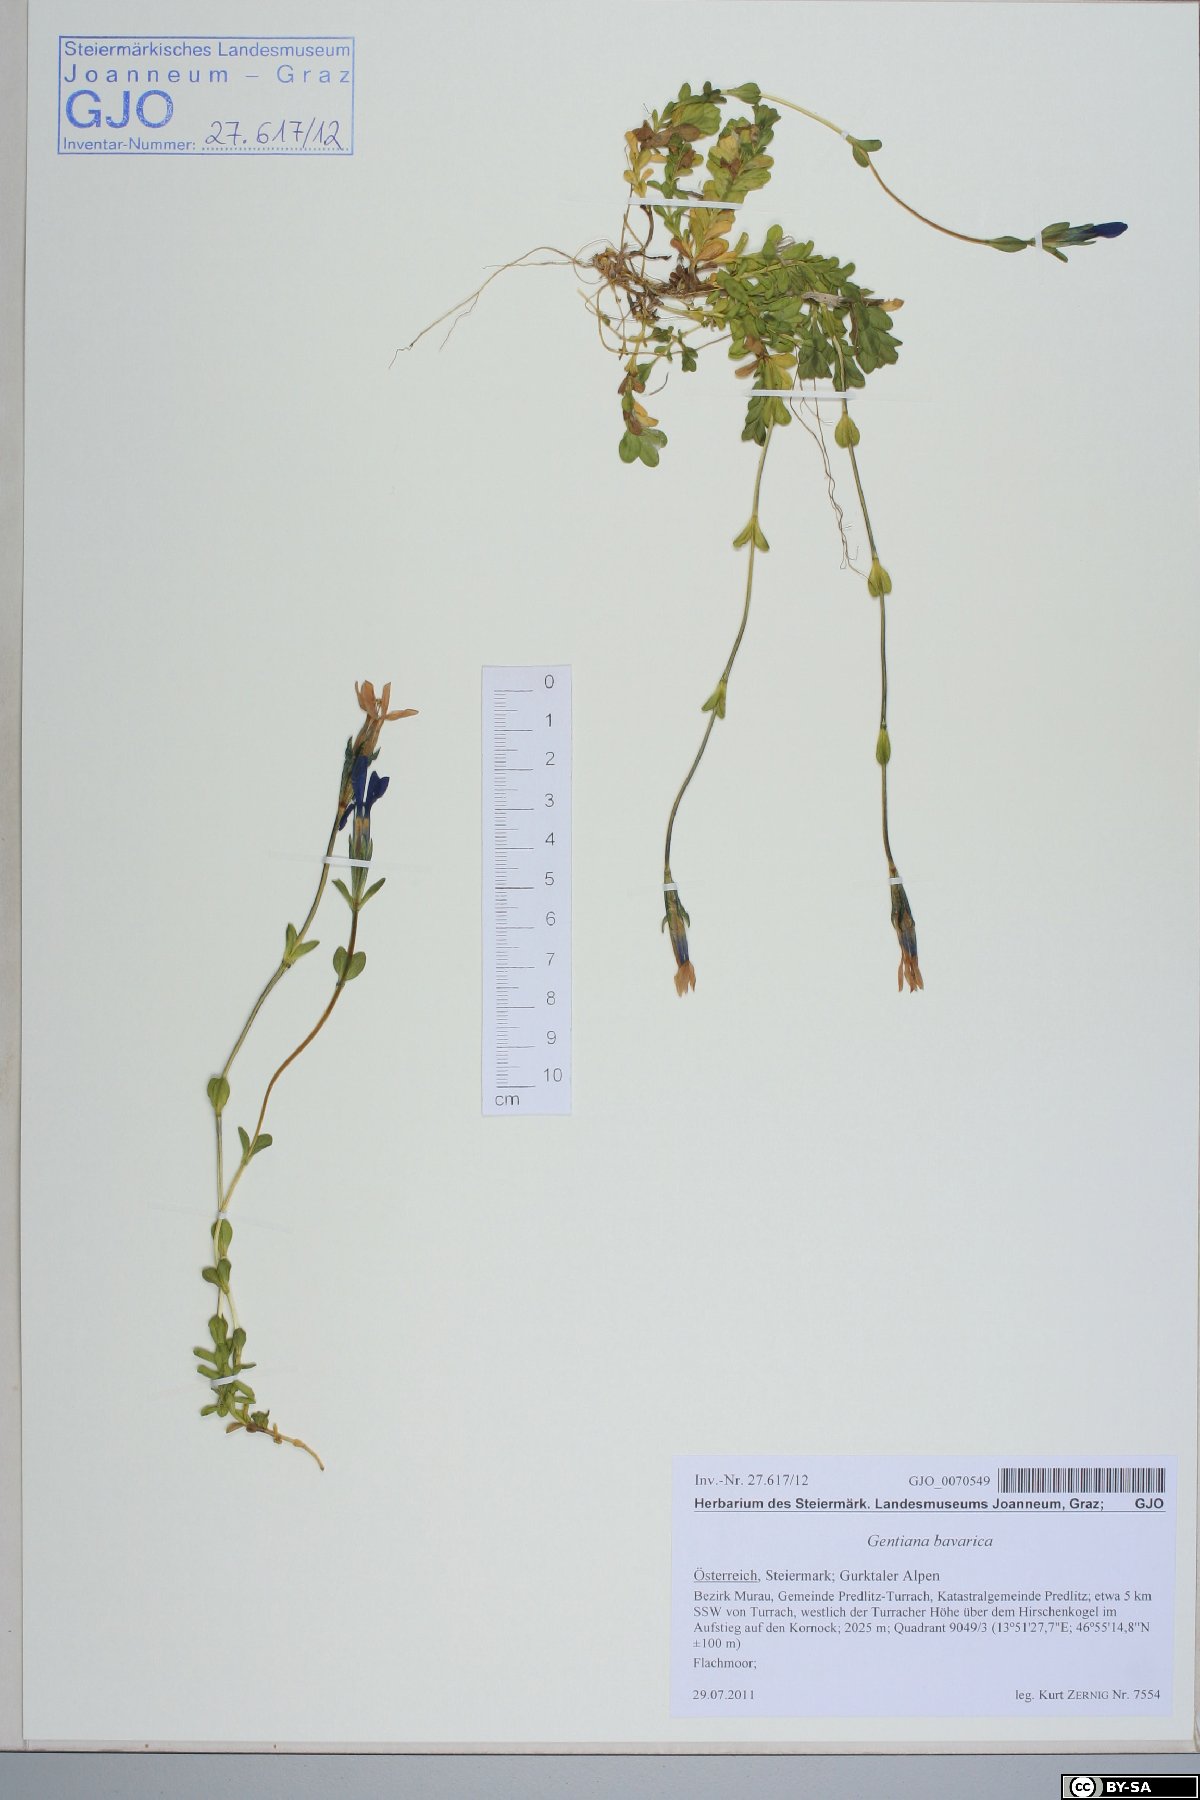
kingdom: Plantae
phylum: Tracheophyta
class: Magnoliopsida
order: Gentianales
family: Gentianaceae
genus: Gentiana
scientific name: Gentiana bavarica
